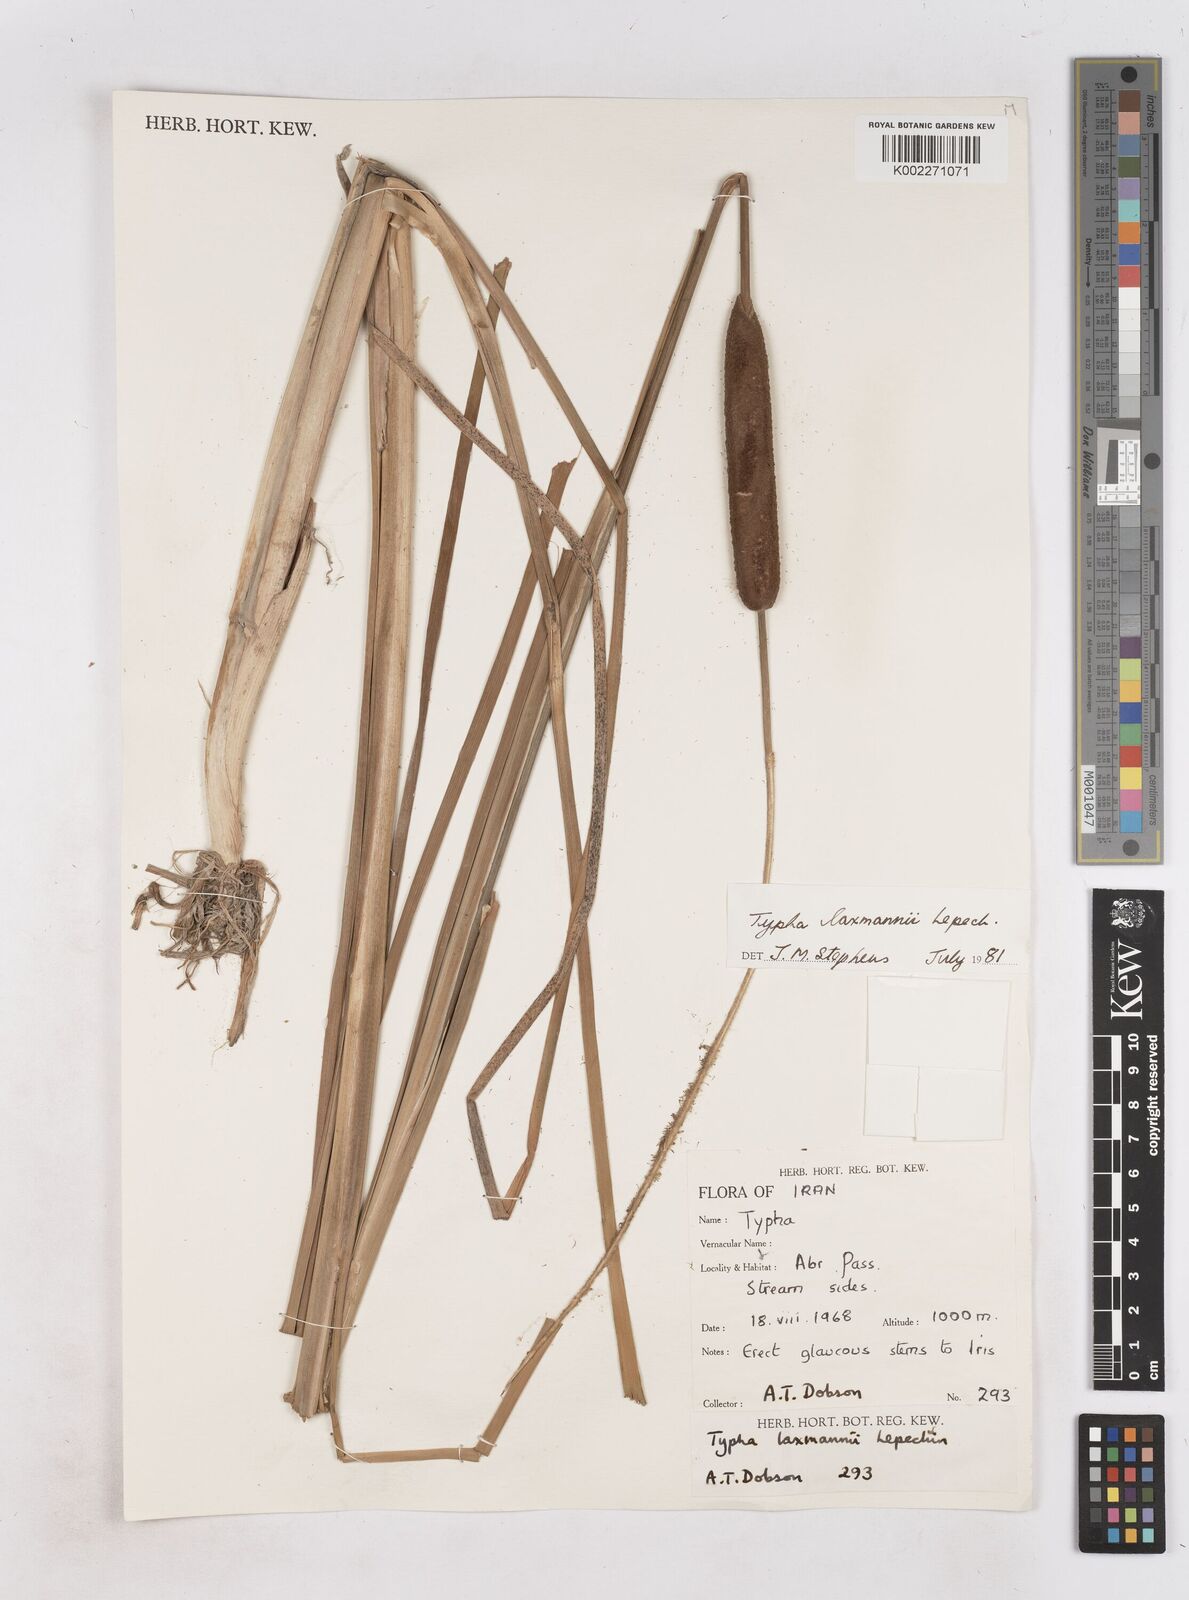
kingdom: Plantae
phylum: Tracheophyta
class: Liliopsida
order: Poales
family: Typhaceae
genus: Typha
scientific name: Typha laxmannii
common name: Laxman’s bulrush
